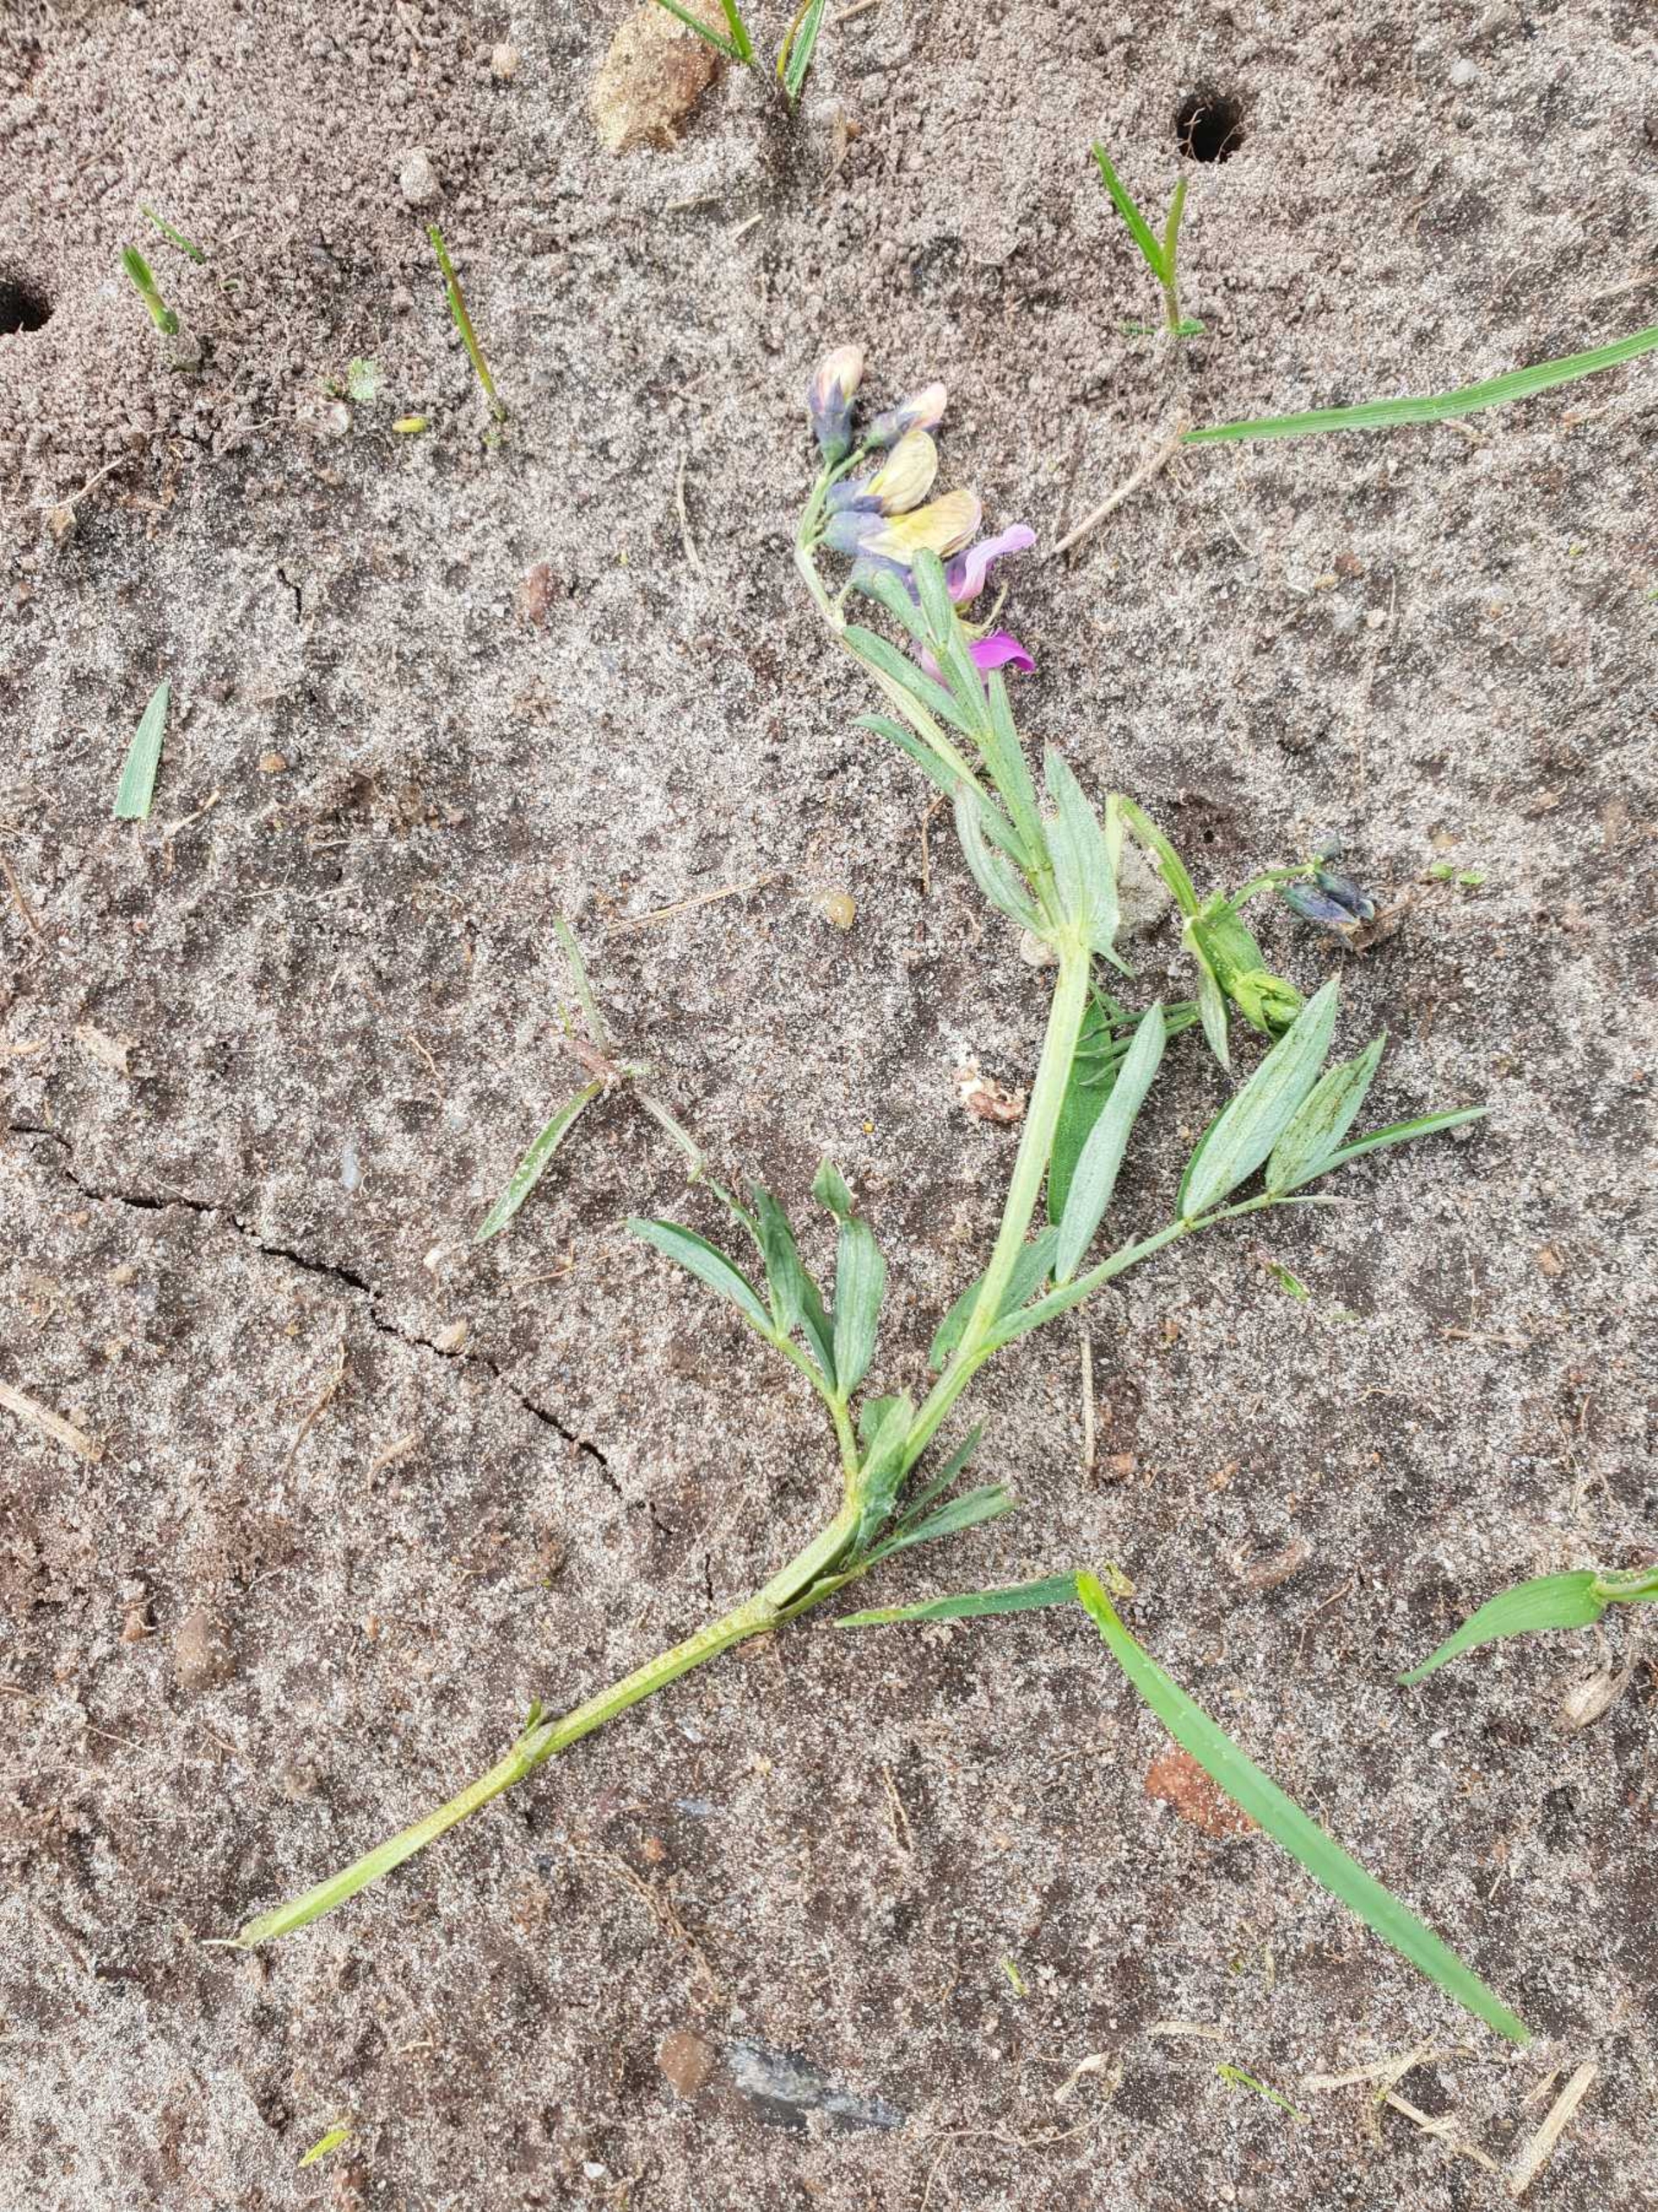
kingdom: Plantae
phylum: Tracheophyta
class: Magnoliopsida
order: Fabales
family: Fabaceae
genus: Lathyrus
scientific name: Lathyrus linifolius
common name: Krat-fladbælg
